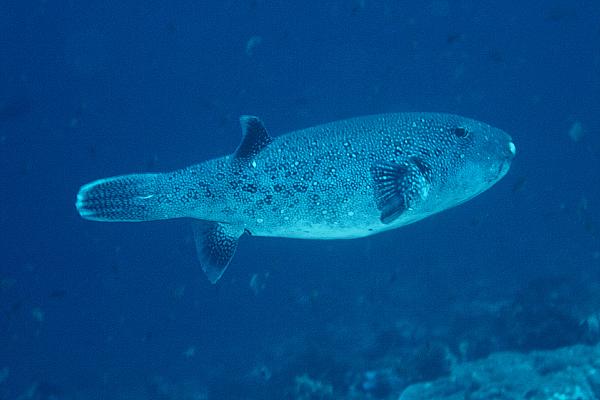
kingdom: Animalia
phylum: Chordata
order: Tetraodontiformes
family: Tetraodontidae
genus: Arothron
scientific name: Arothron caeruleopunctatus
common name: Blue-spotted puffer
